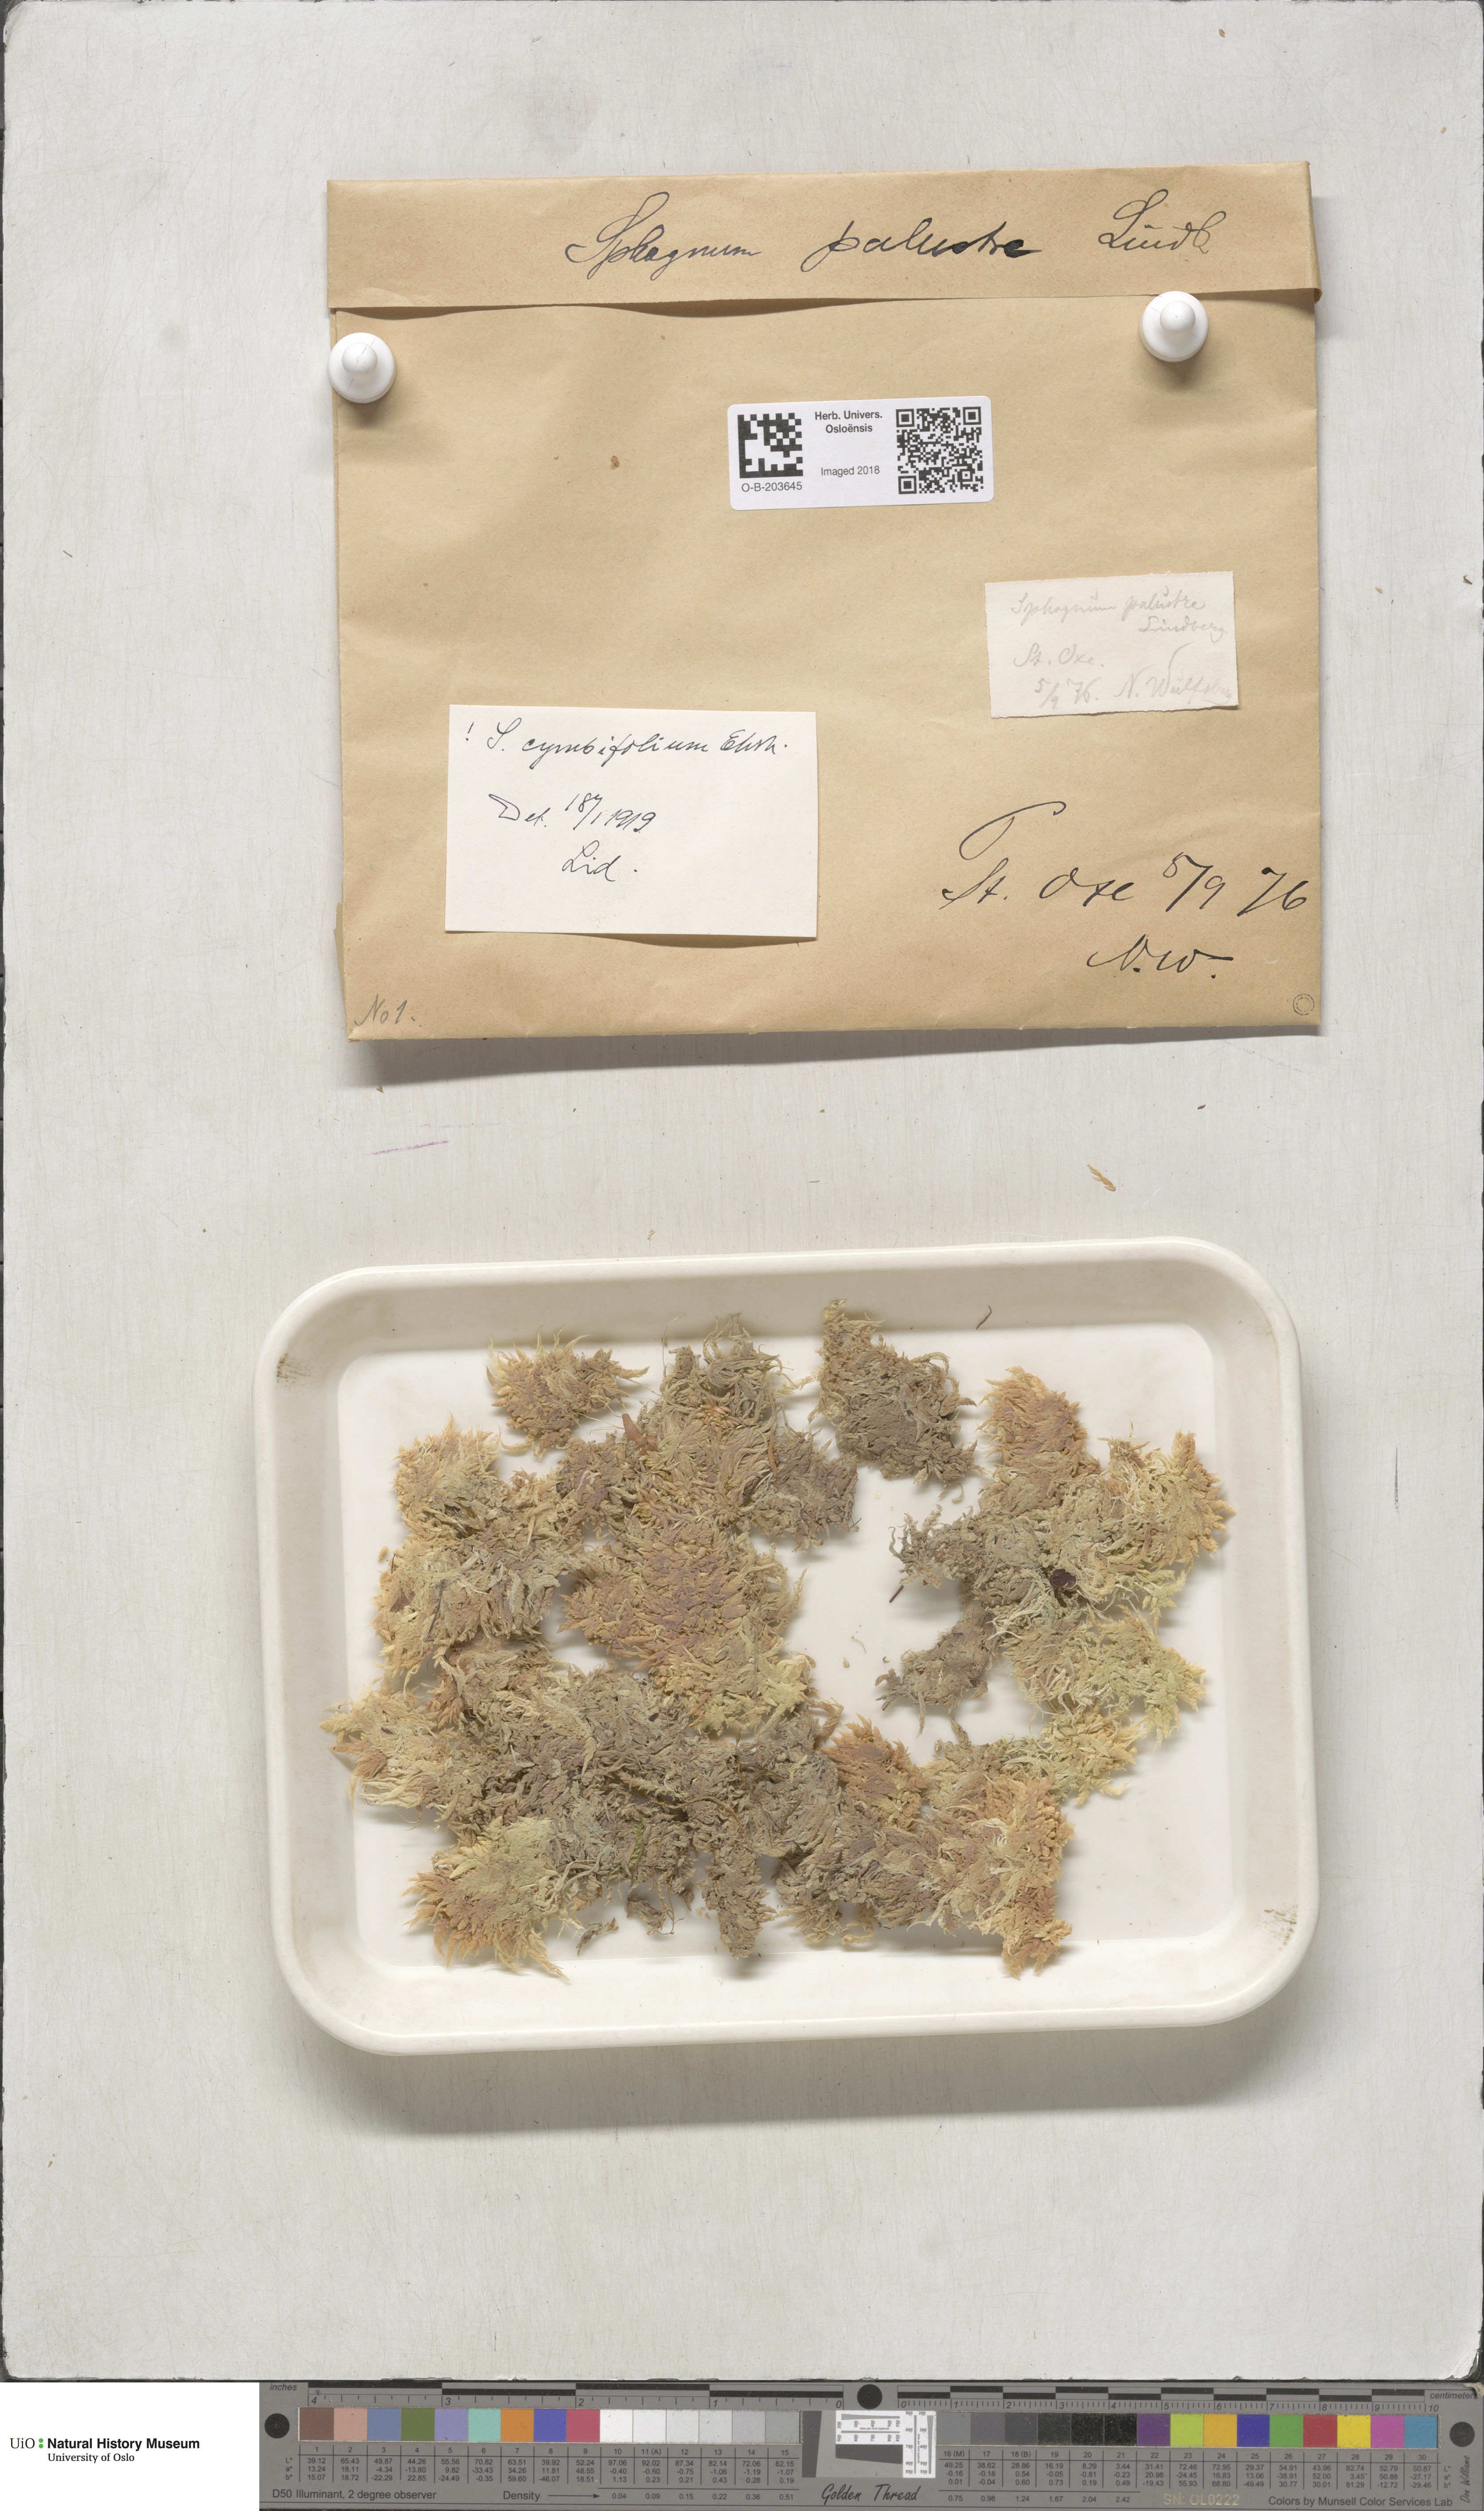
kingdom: Plantae
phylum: Bryophyta
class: Sphagnopsida
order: Sphagnales
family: Sphagnaceae
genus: Sphagnum
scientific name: Sphagnum palustre
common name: Blunt-leaved bog-moss
